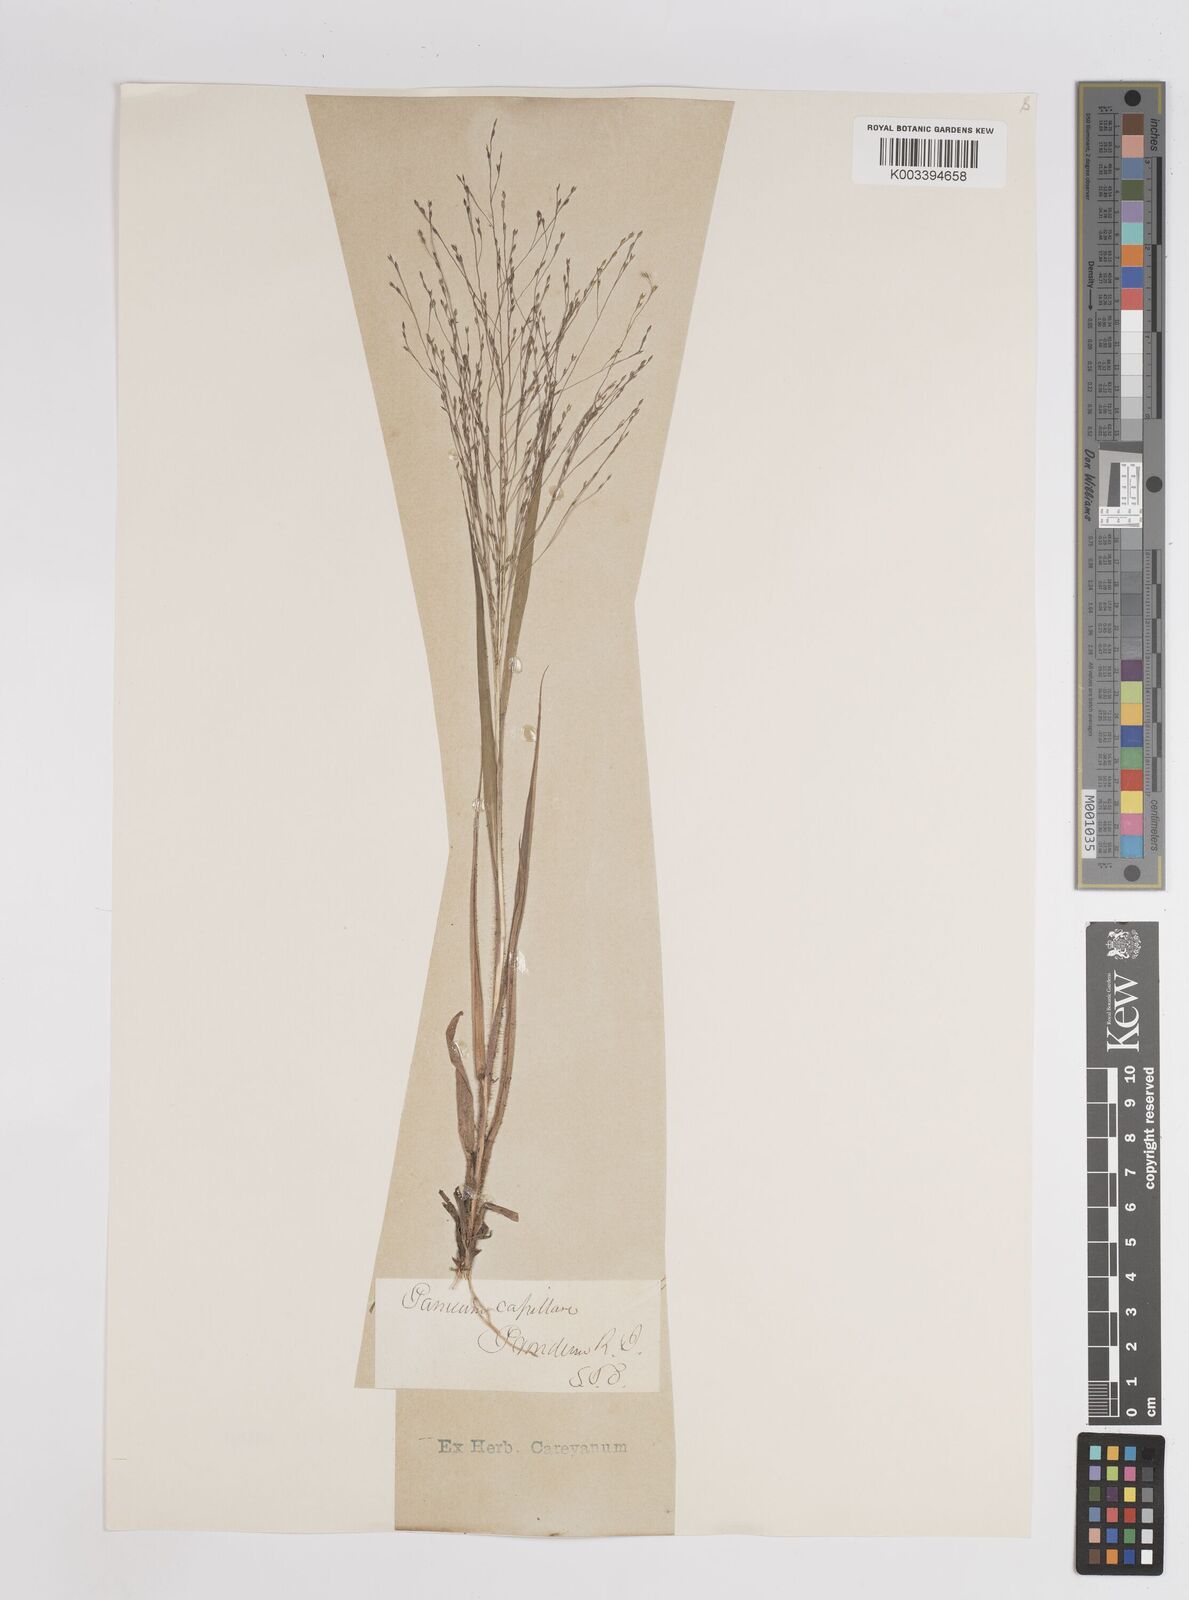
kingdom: Plantae
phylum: Tracheophyta
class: Liliopsida
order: Poales
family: Poaceae
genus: Panicum
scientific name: Panicum capillare
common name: Witch-grass
